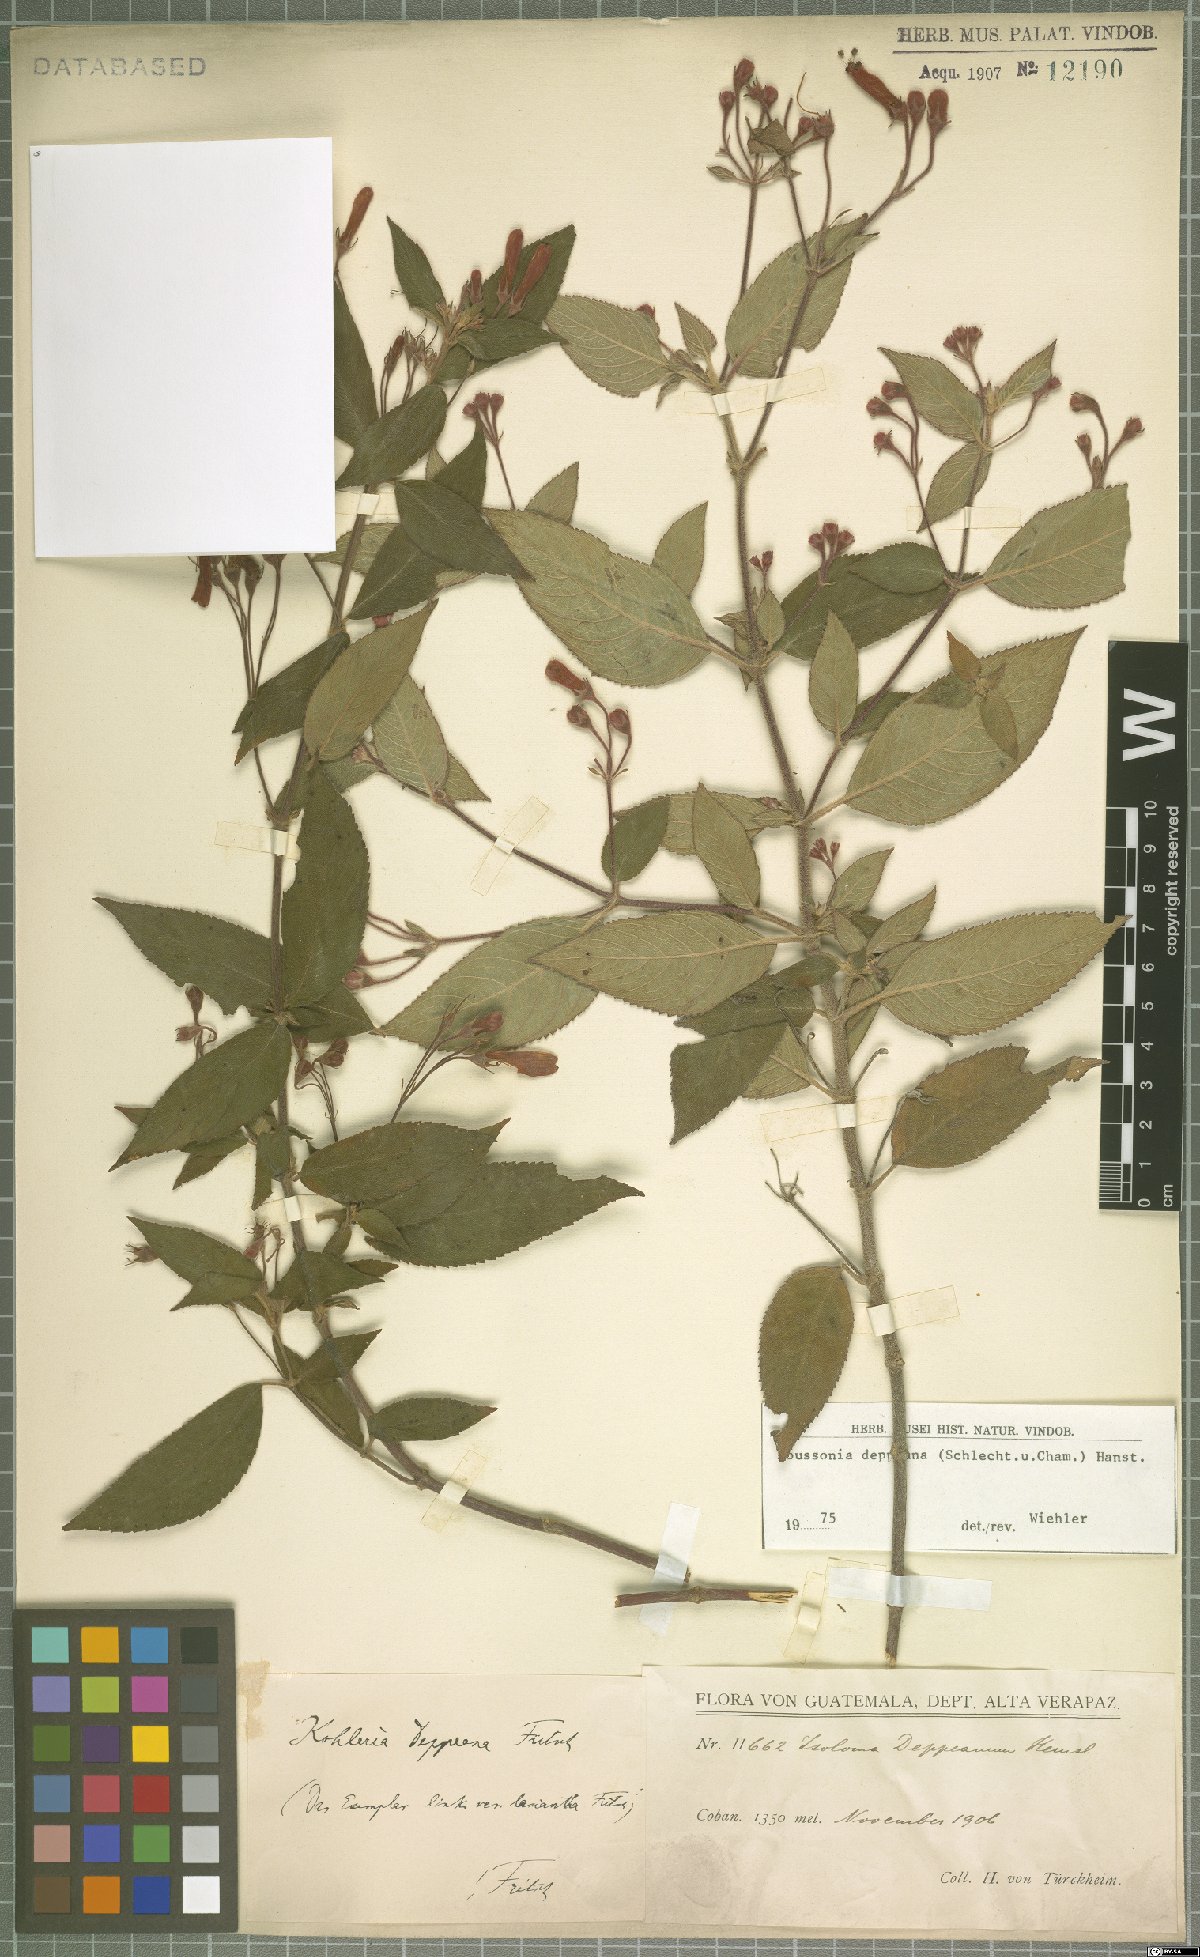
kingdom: Plantae
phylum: Tracheophyta
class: Magnoliopsida
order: Lamiales
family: Gesneriaceae
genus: Moussonia
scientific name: Moussonia deppeana
